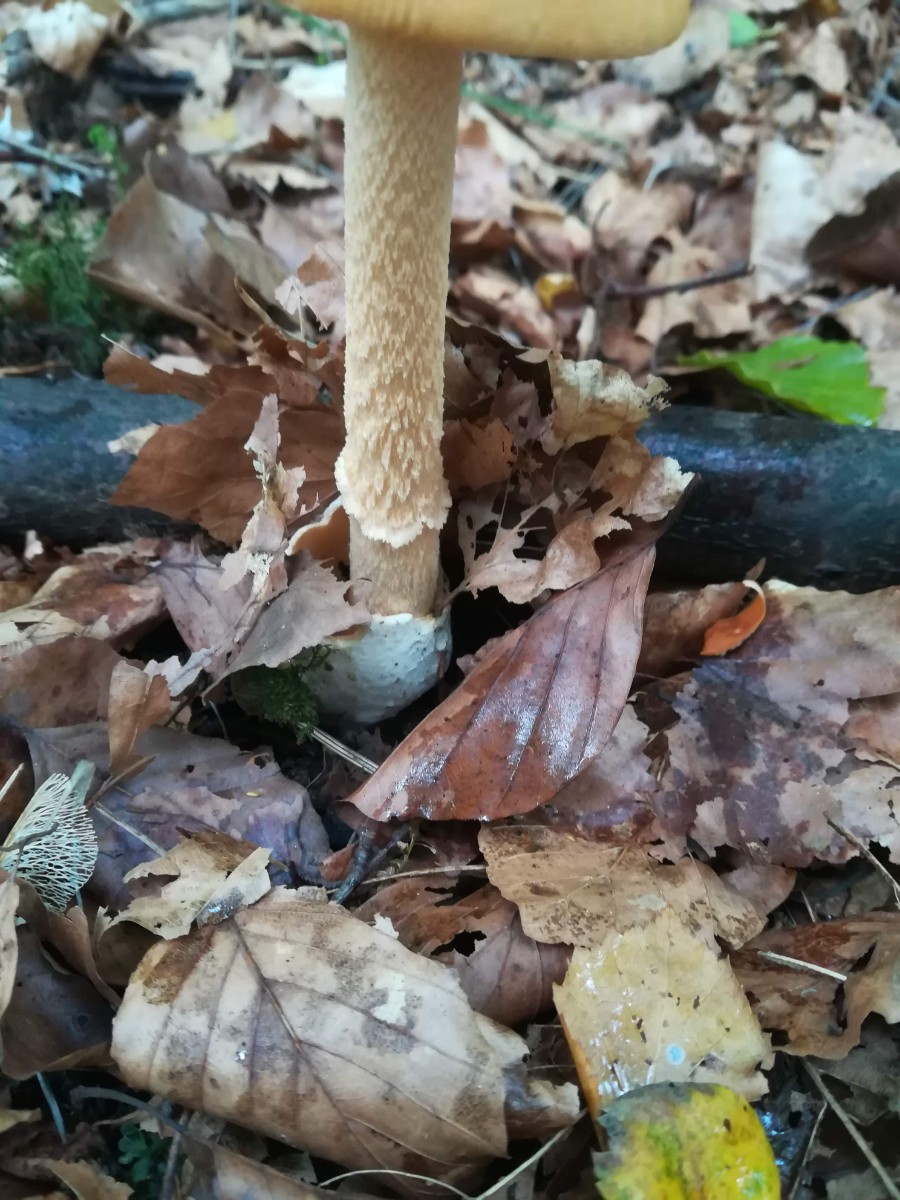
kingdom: Fungi
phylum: Basidiomycota
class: Agaricomycetes
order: Agaricales
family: Amanitaceae
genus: Amanita
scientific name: Amanita crocea
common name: gylden kam-fluesvamp
